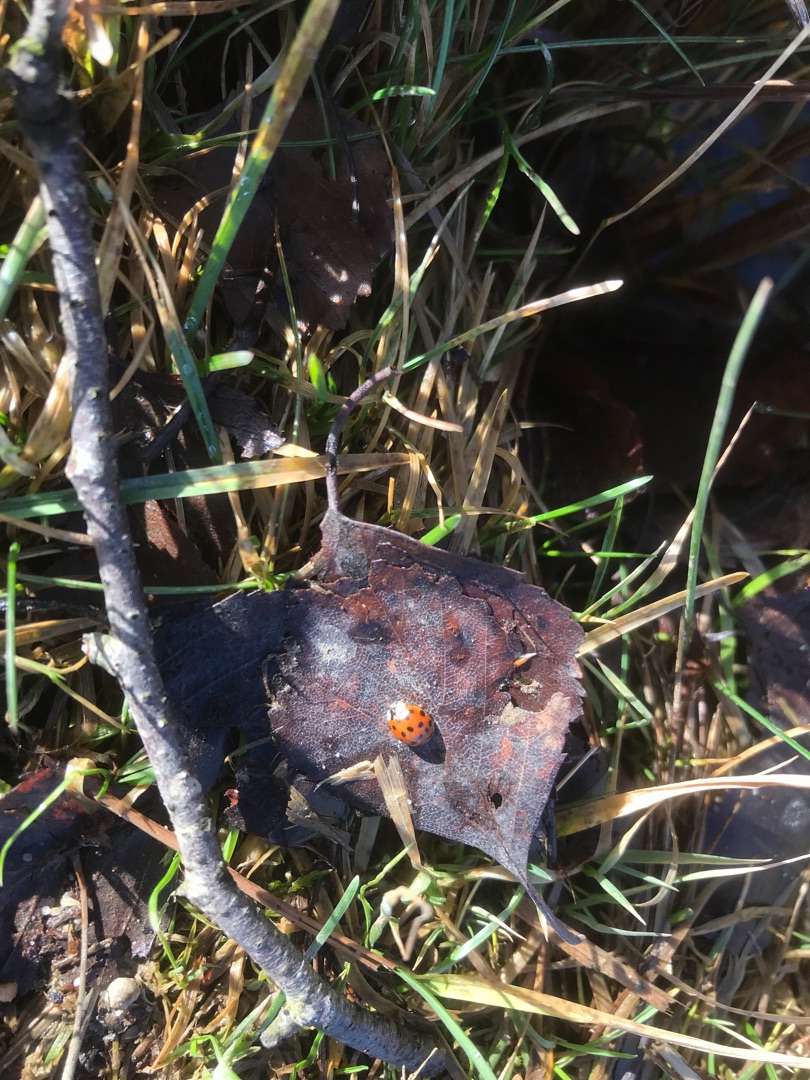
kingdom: Animalia
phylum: Arthropoda
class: Insecta
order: Coleoptera
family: Coccinellidae
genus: Harmonia
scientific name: Harmonia axyridis
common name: Harlekinmariehøne
